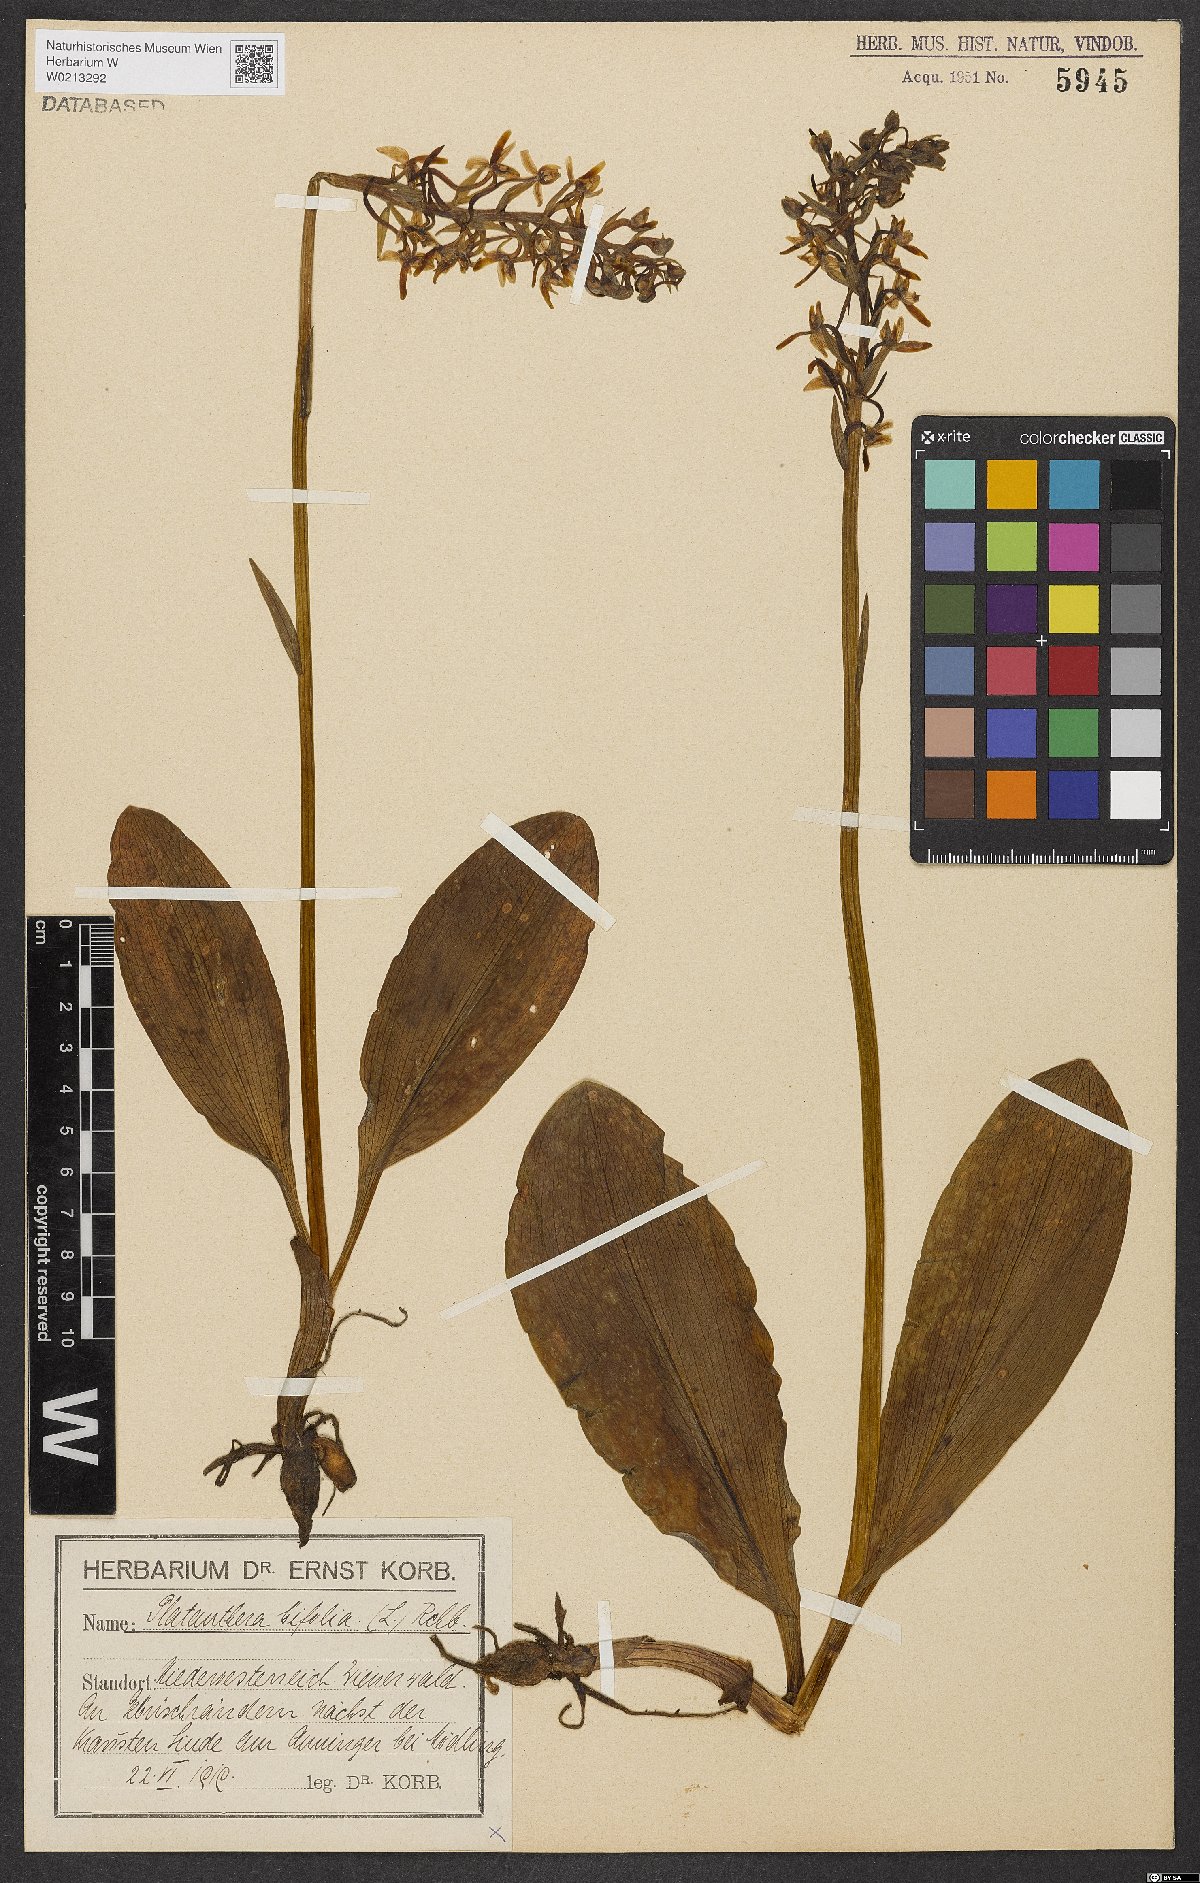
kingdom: Plantae
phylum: Tracheophyta
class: Liliopsida
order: Asparagales
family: Orchidaceae
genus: Platanthera
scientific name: Platanthera bifolia
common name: Lesser butterfly-orchid
